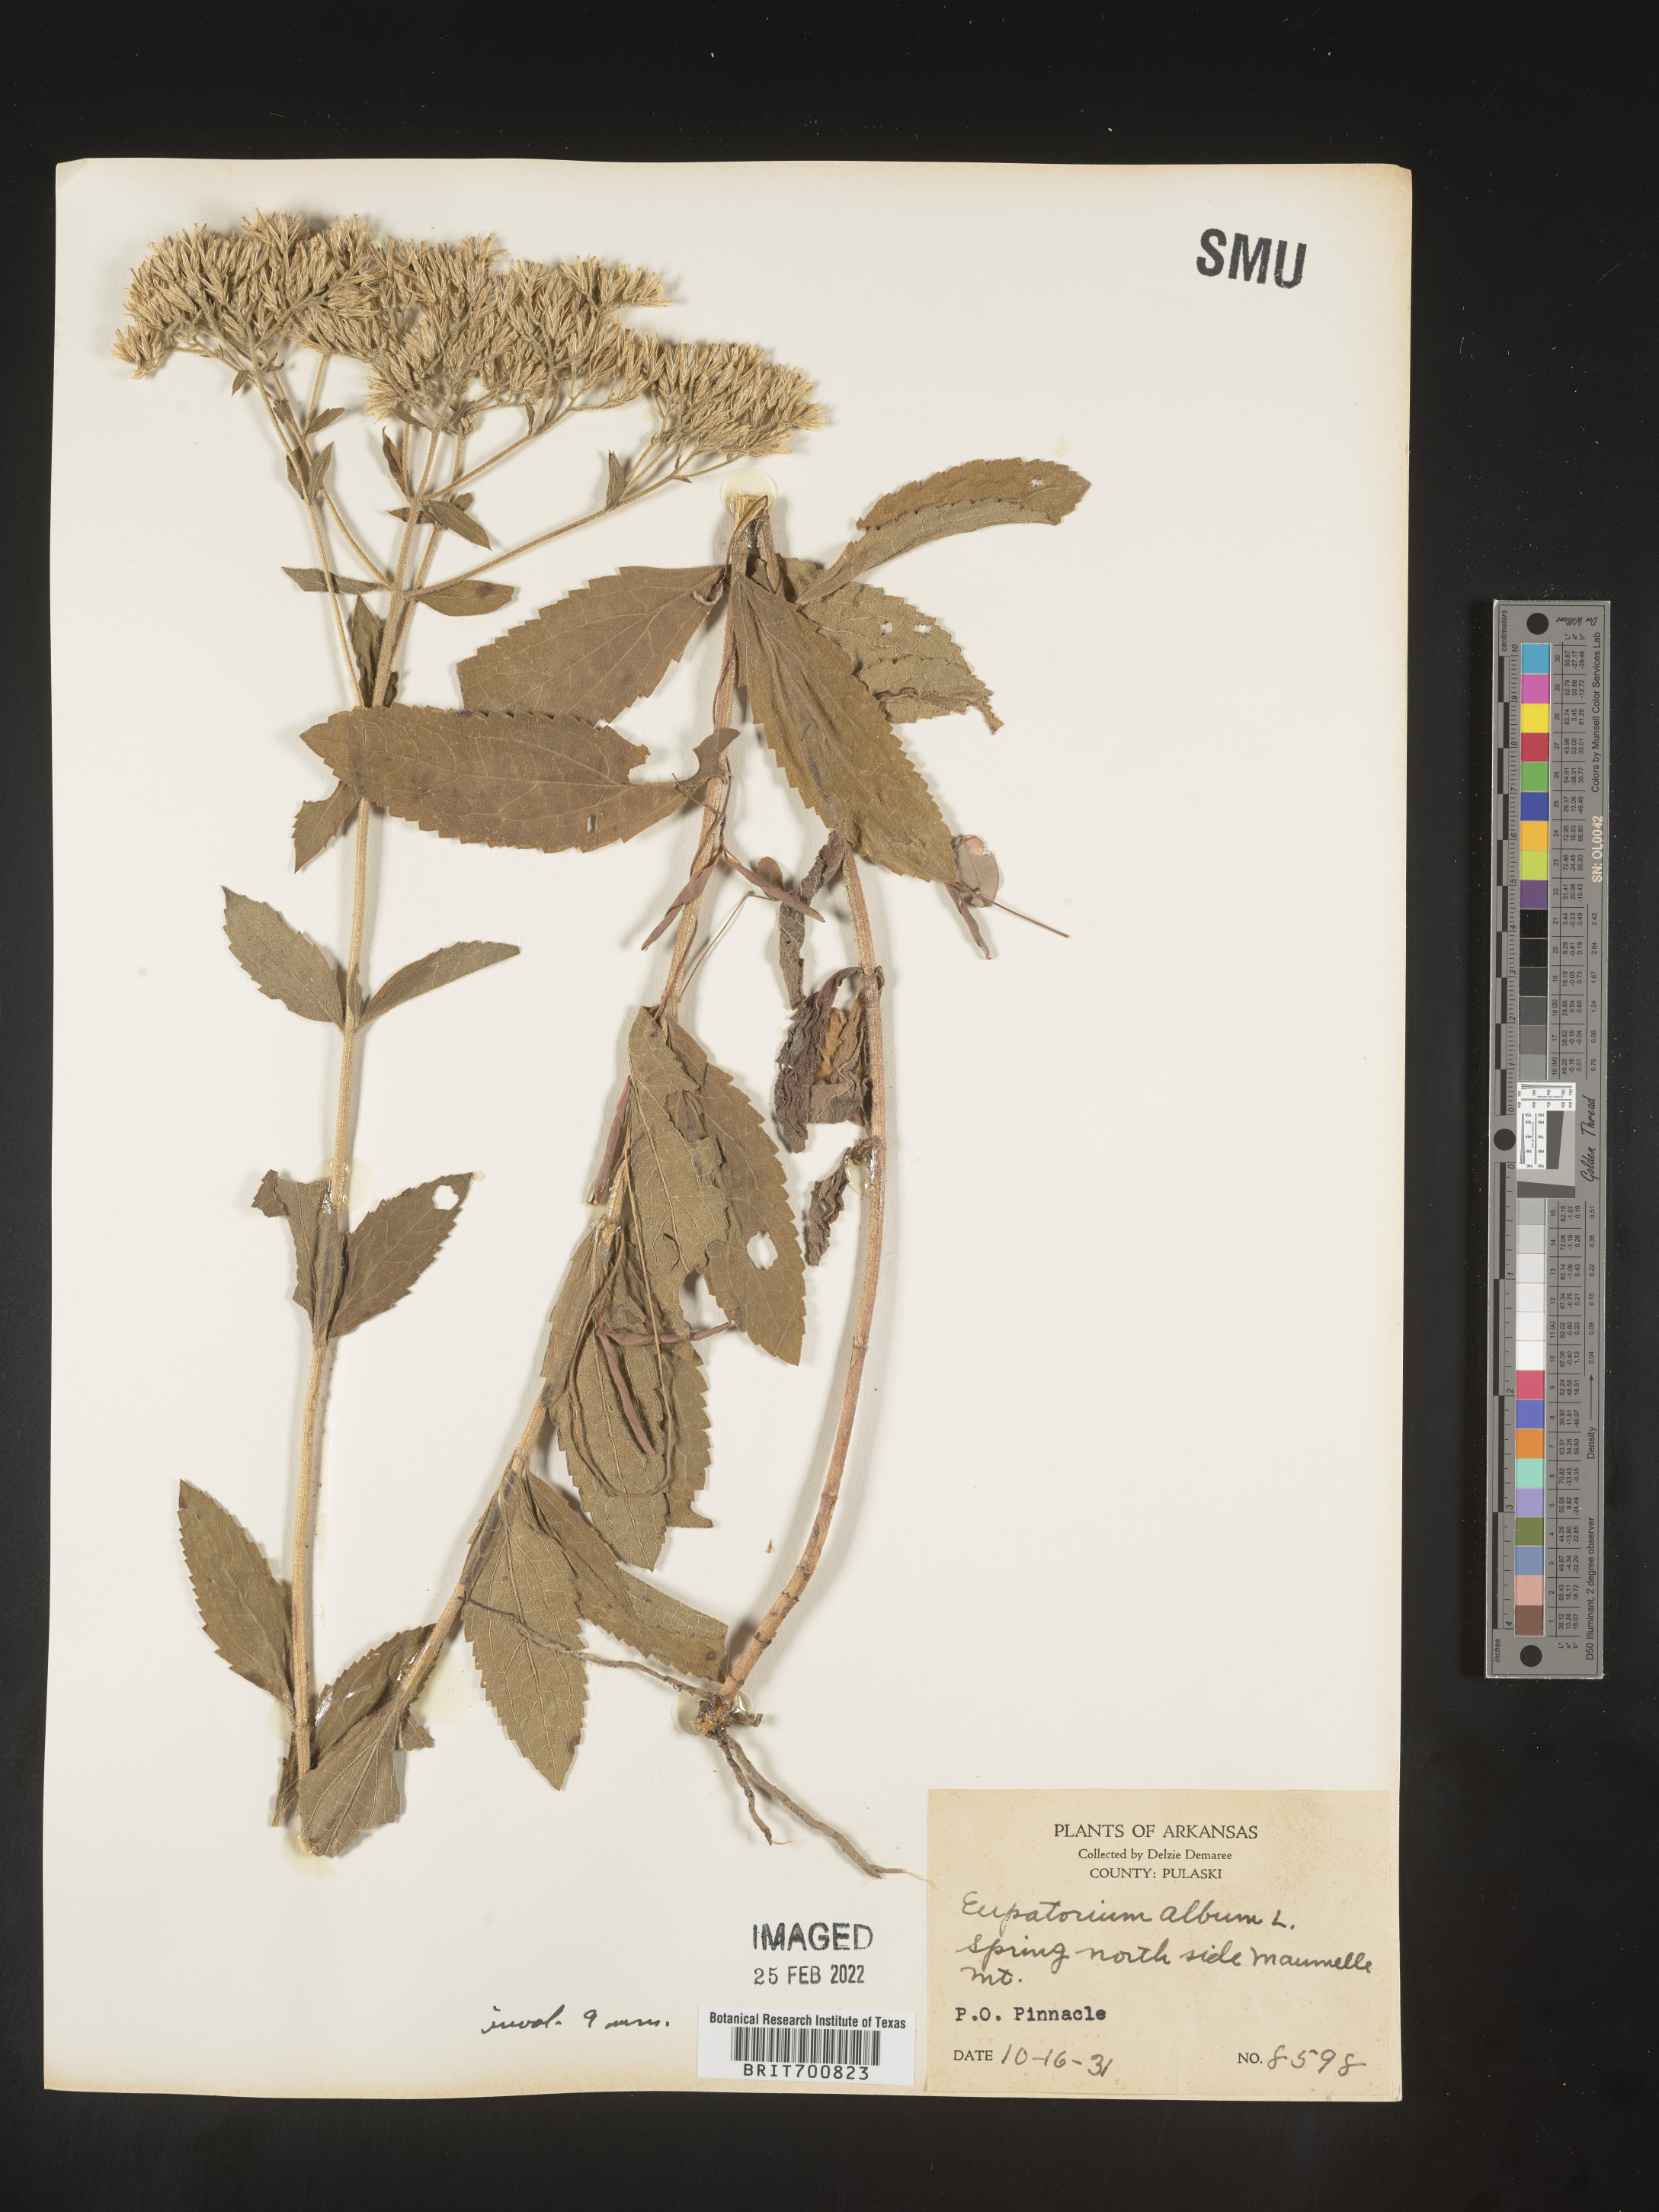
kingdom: Plantae
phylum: Tracheophyta
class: Magnoliopsida
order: Asterales
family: Asteraceae
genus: Eupatorium
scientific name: Eupatorium album
